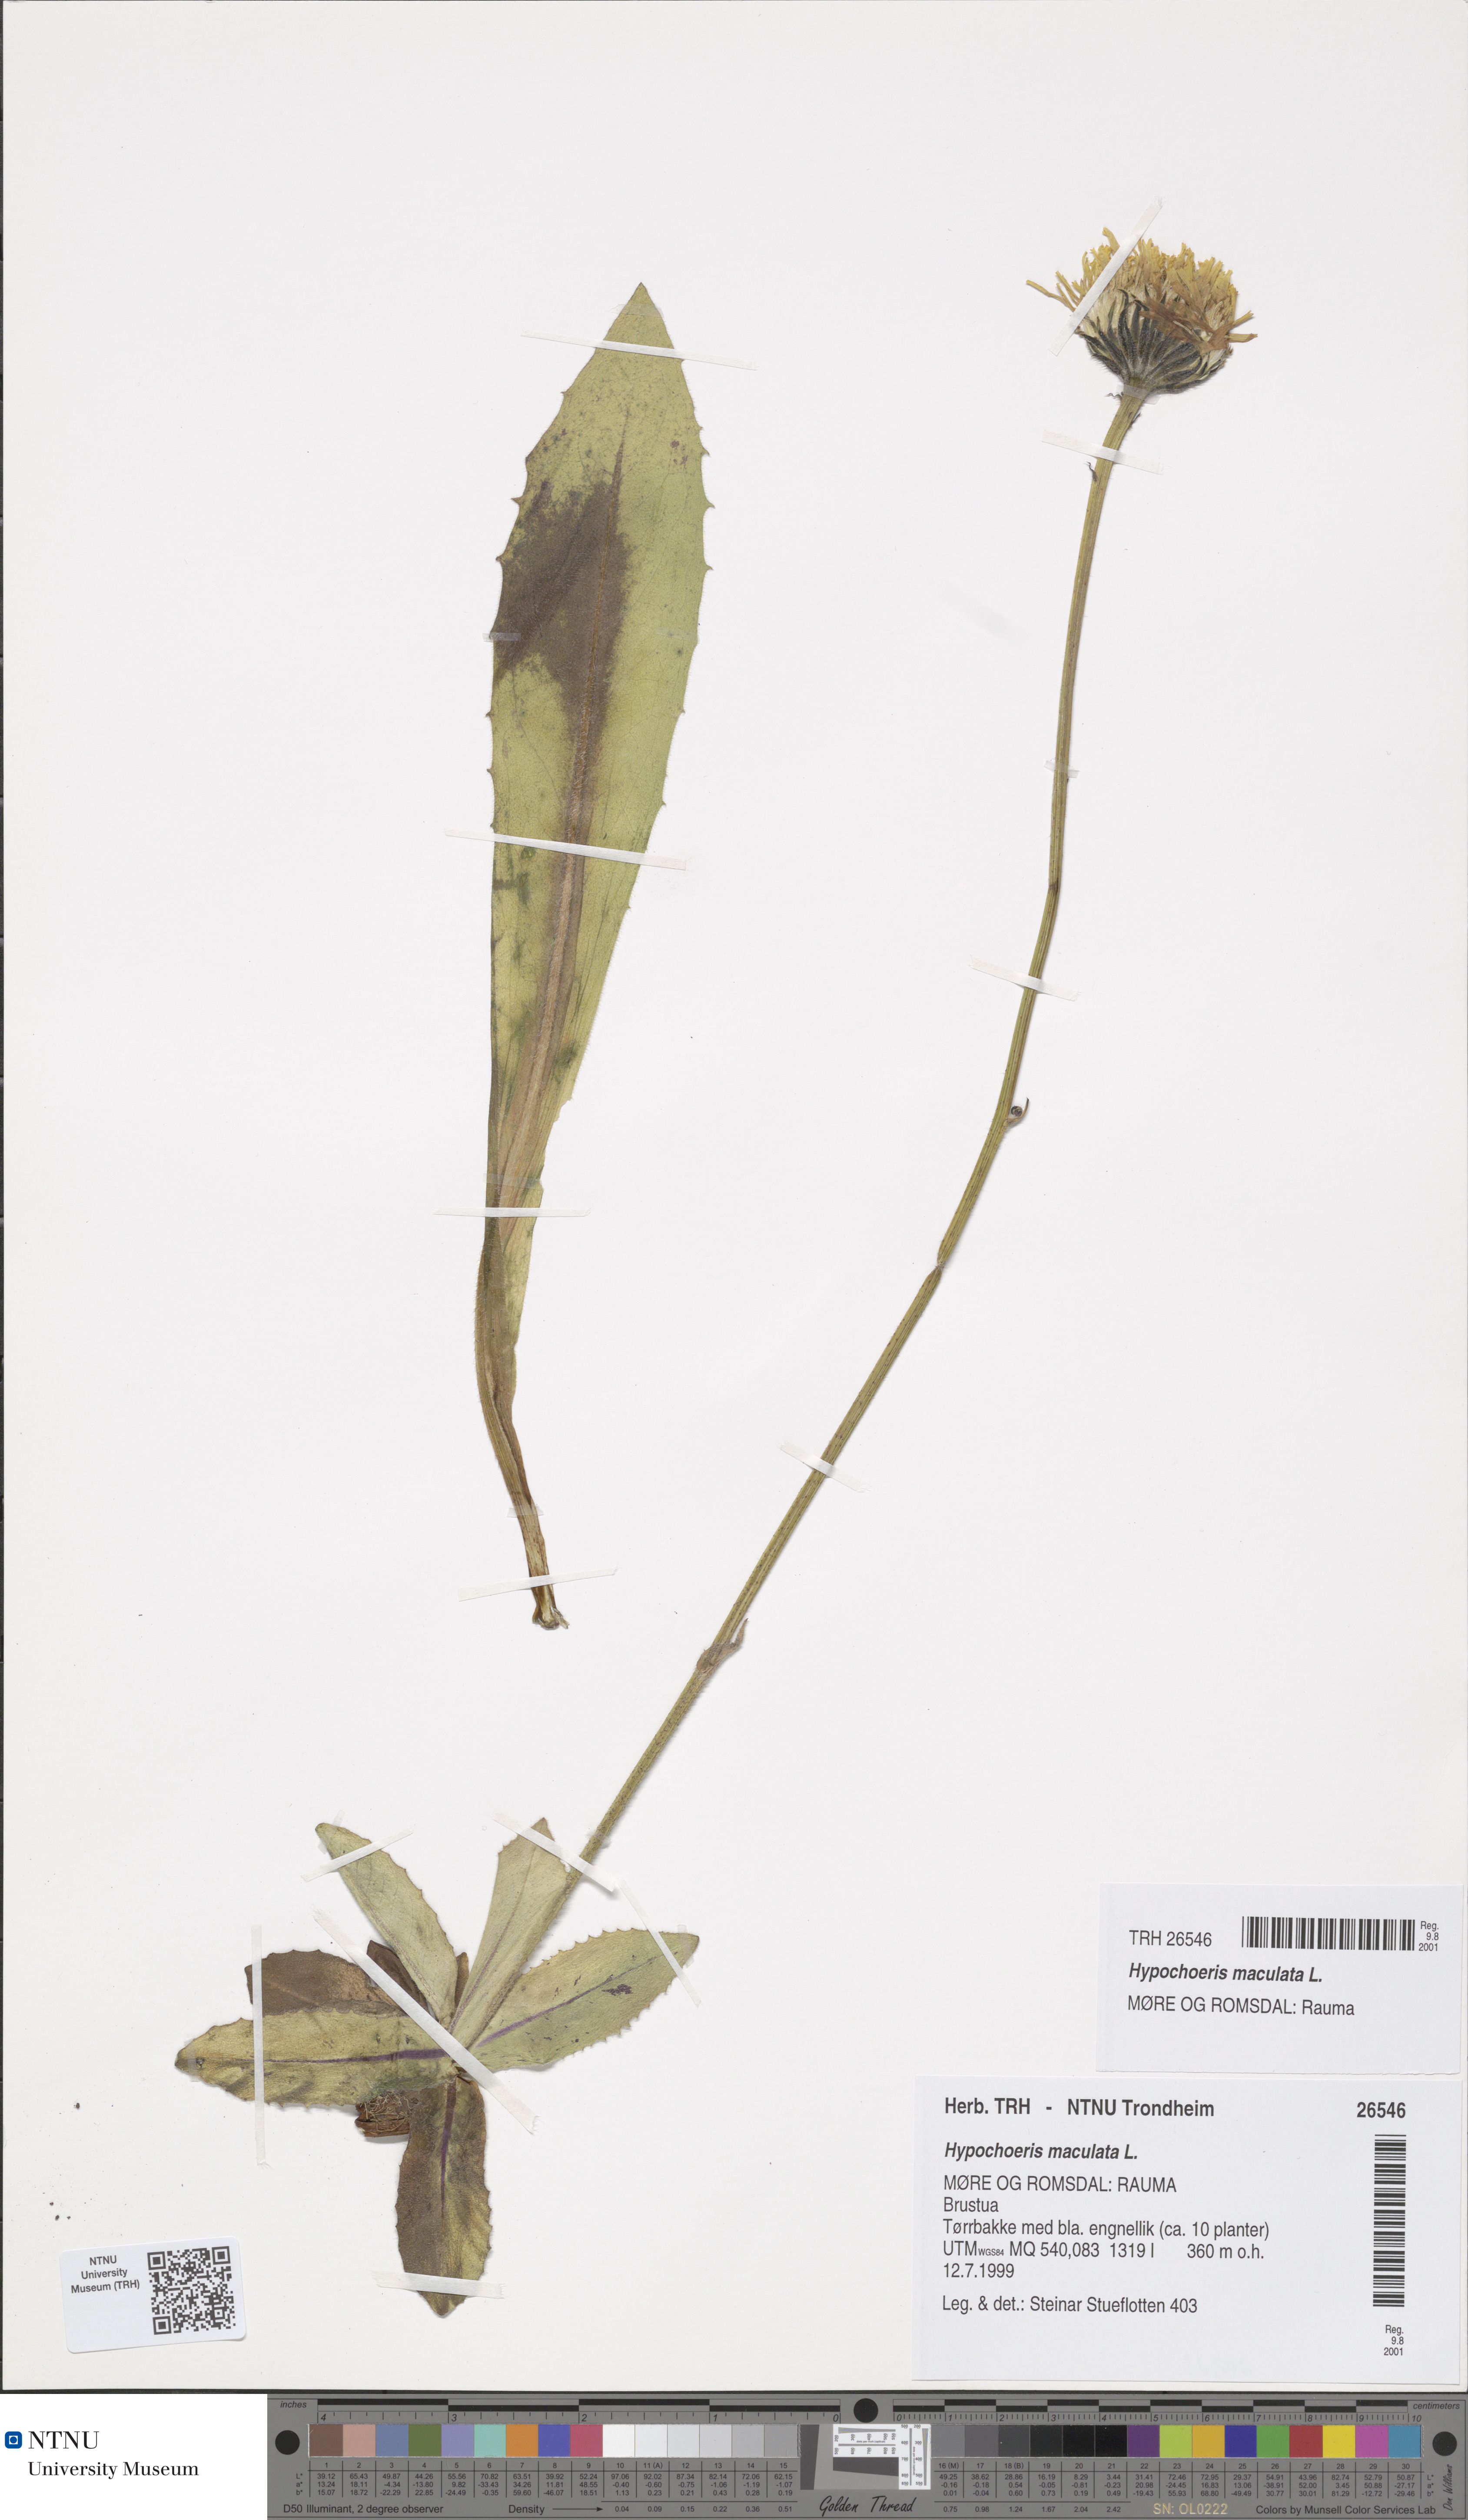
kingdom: Plantae
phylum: Tracheophyta
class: Magnoliopsida
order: Asterales
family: Asteraceae
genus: Trommsdorffia
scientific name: Trommsdorffia maculata
